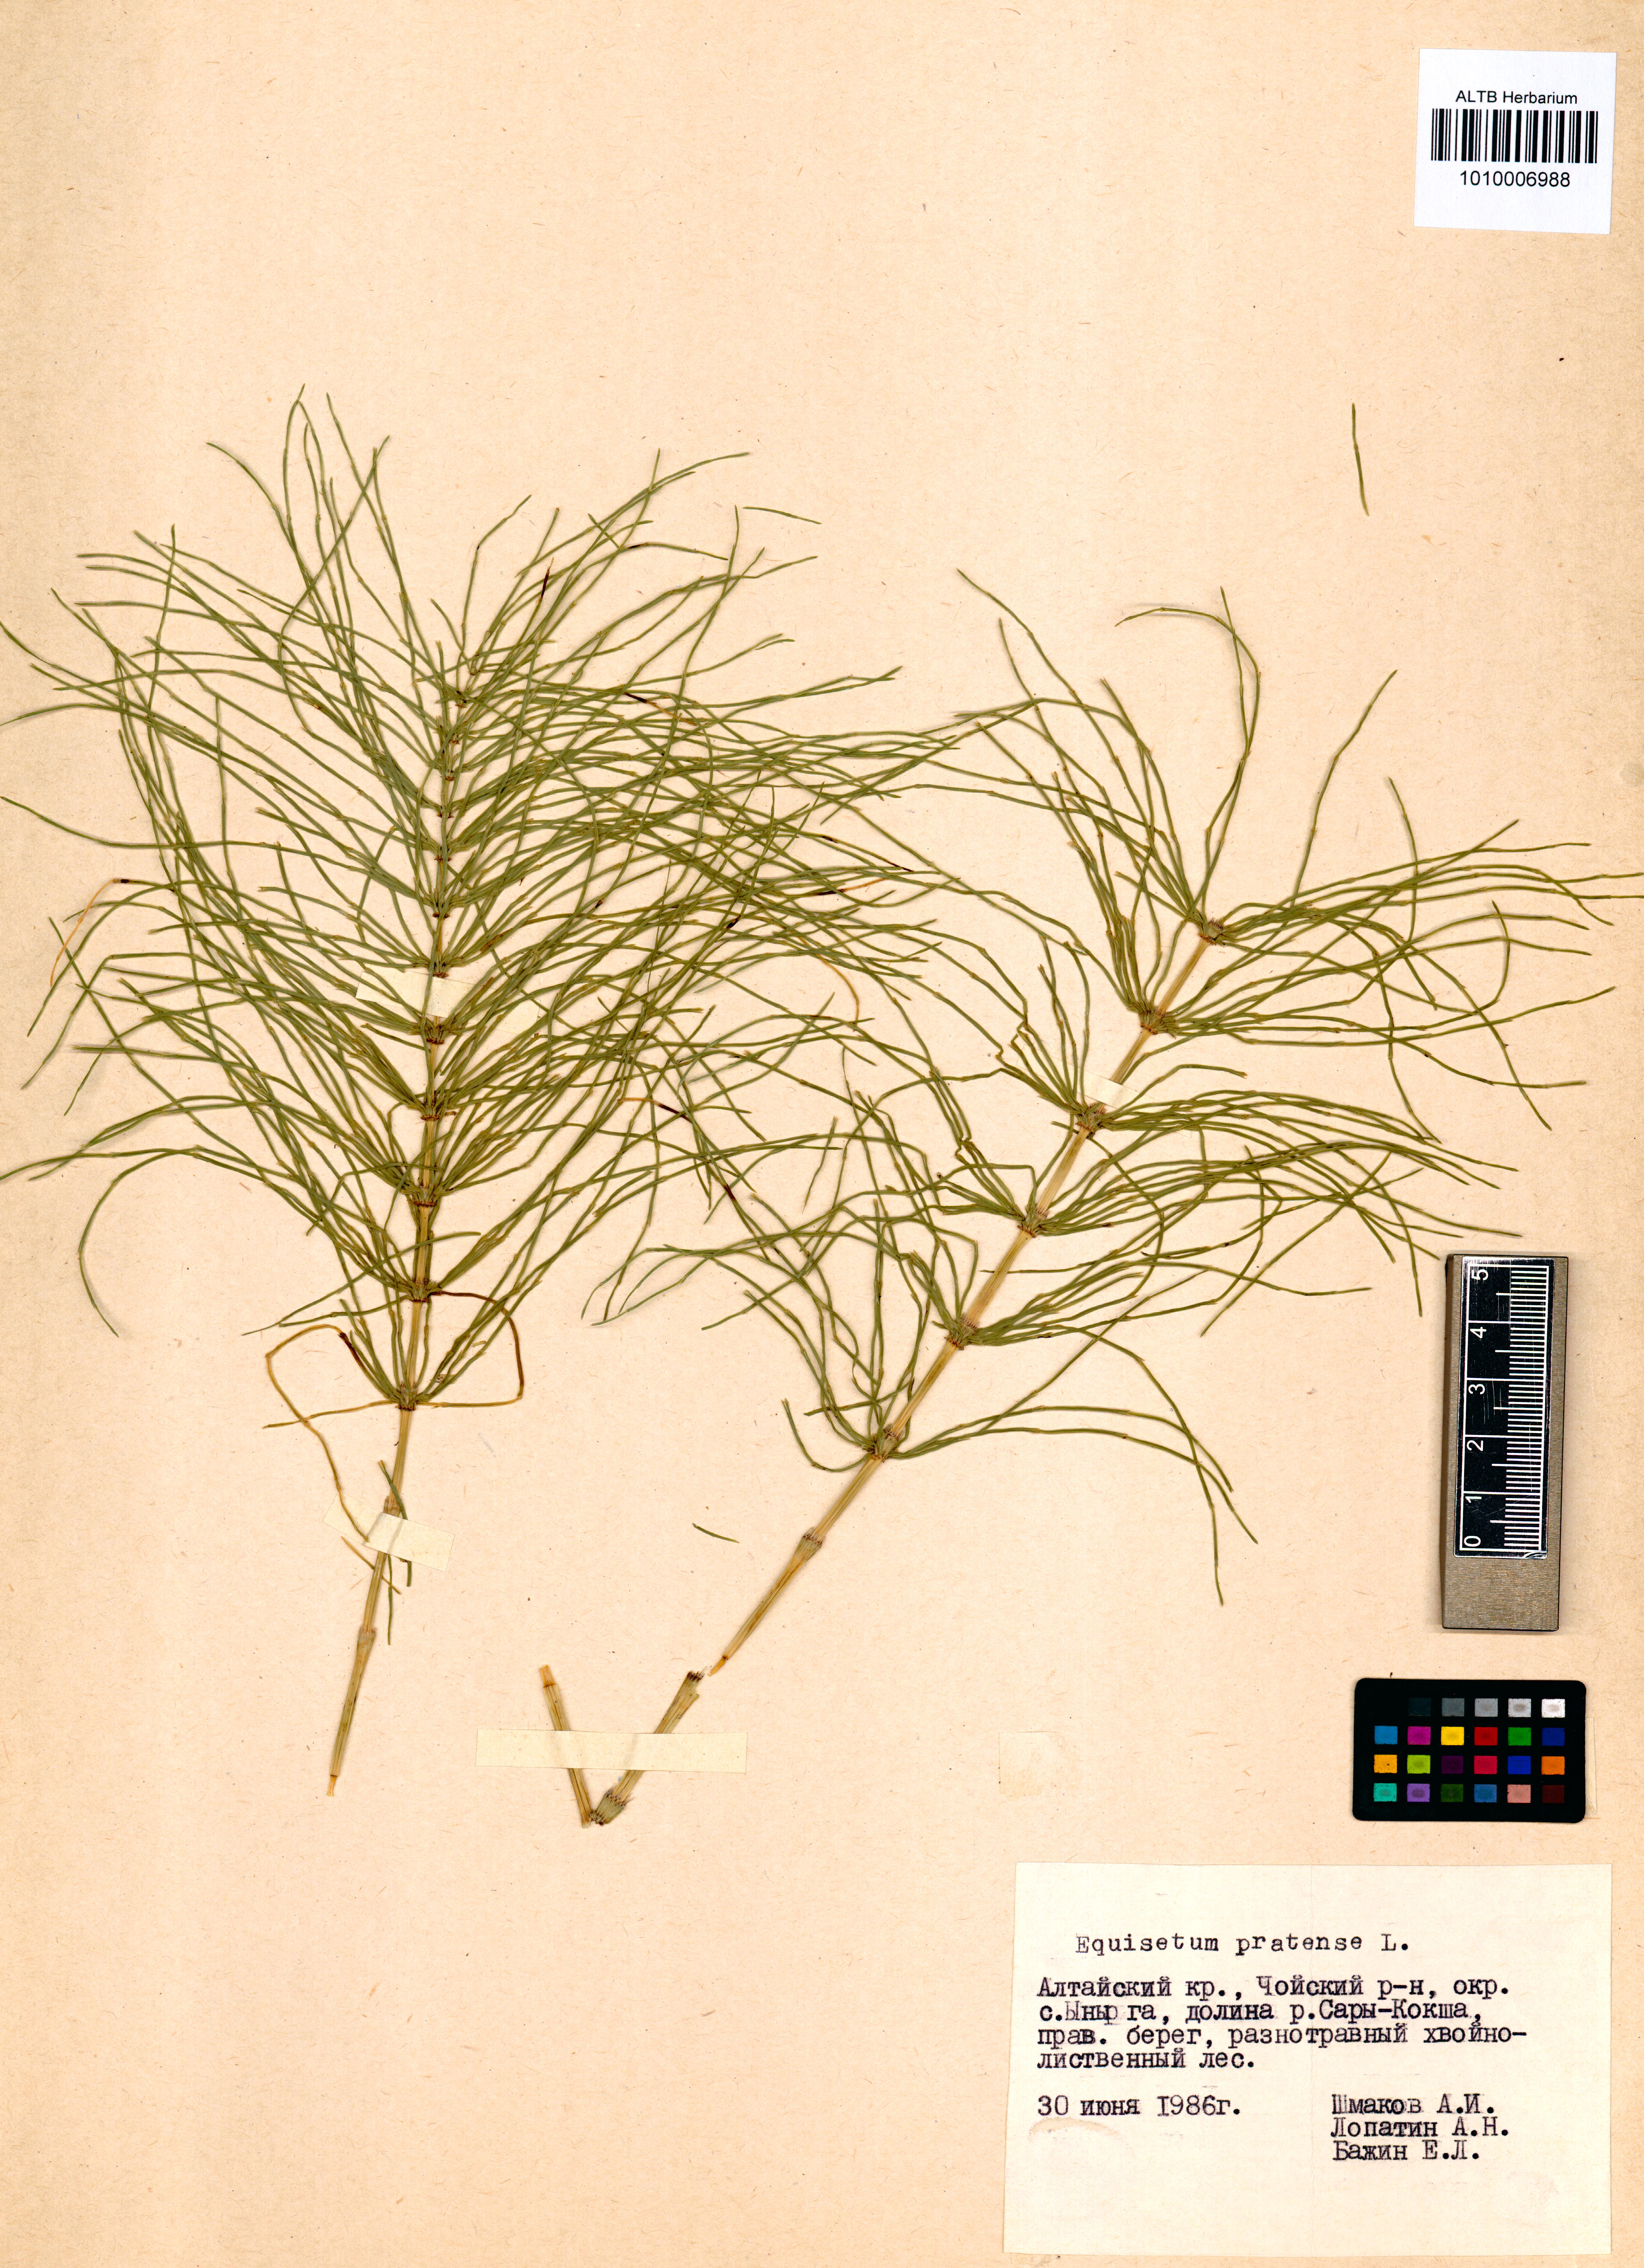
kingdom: Plantae
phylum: Tracheophyta
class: Polypodiopsida
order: Equisetales
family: Equisetaceae
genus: Equisetum
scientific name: Equisetum pratense
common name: Meadow horsetail
